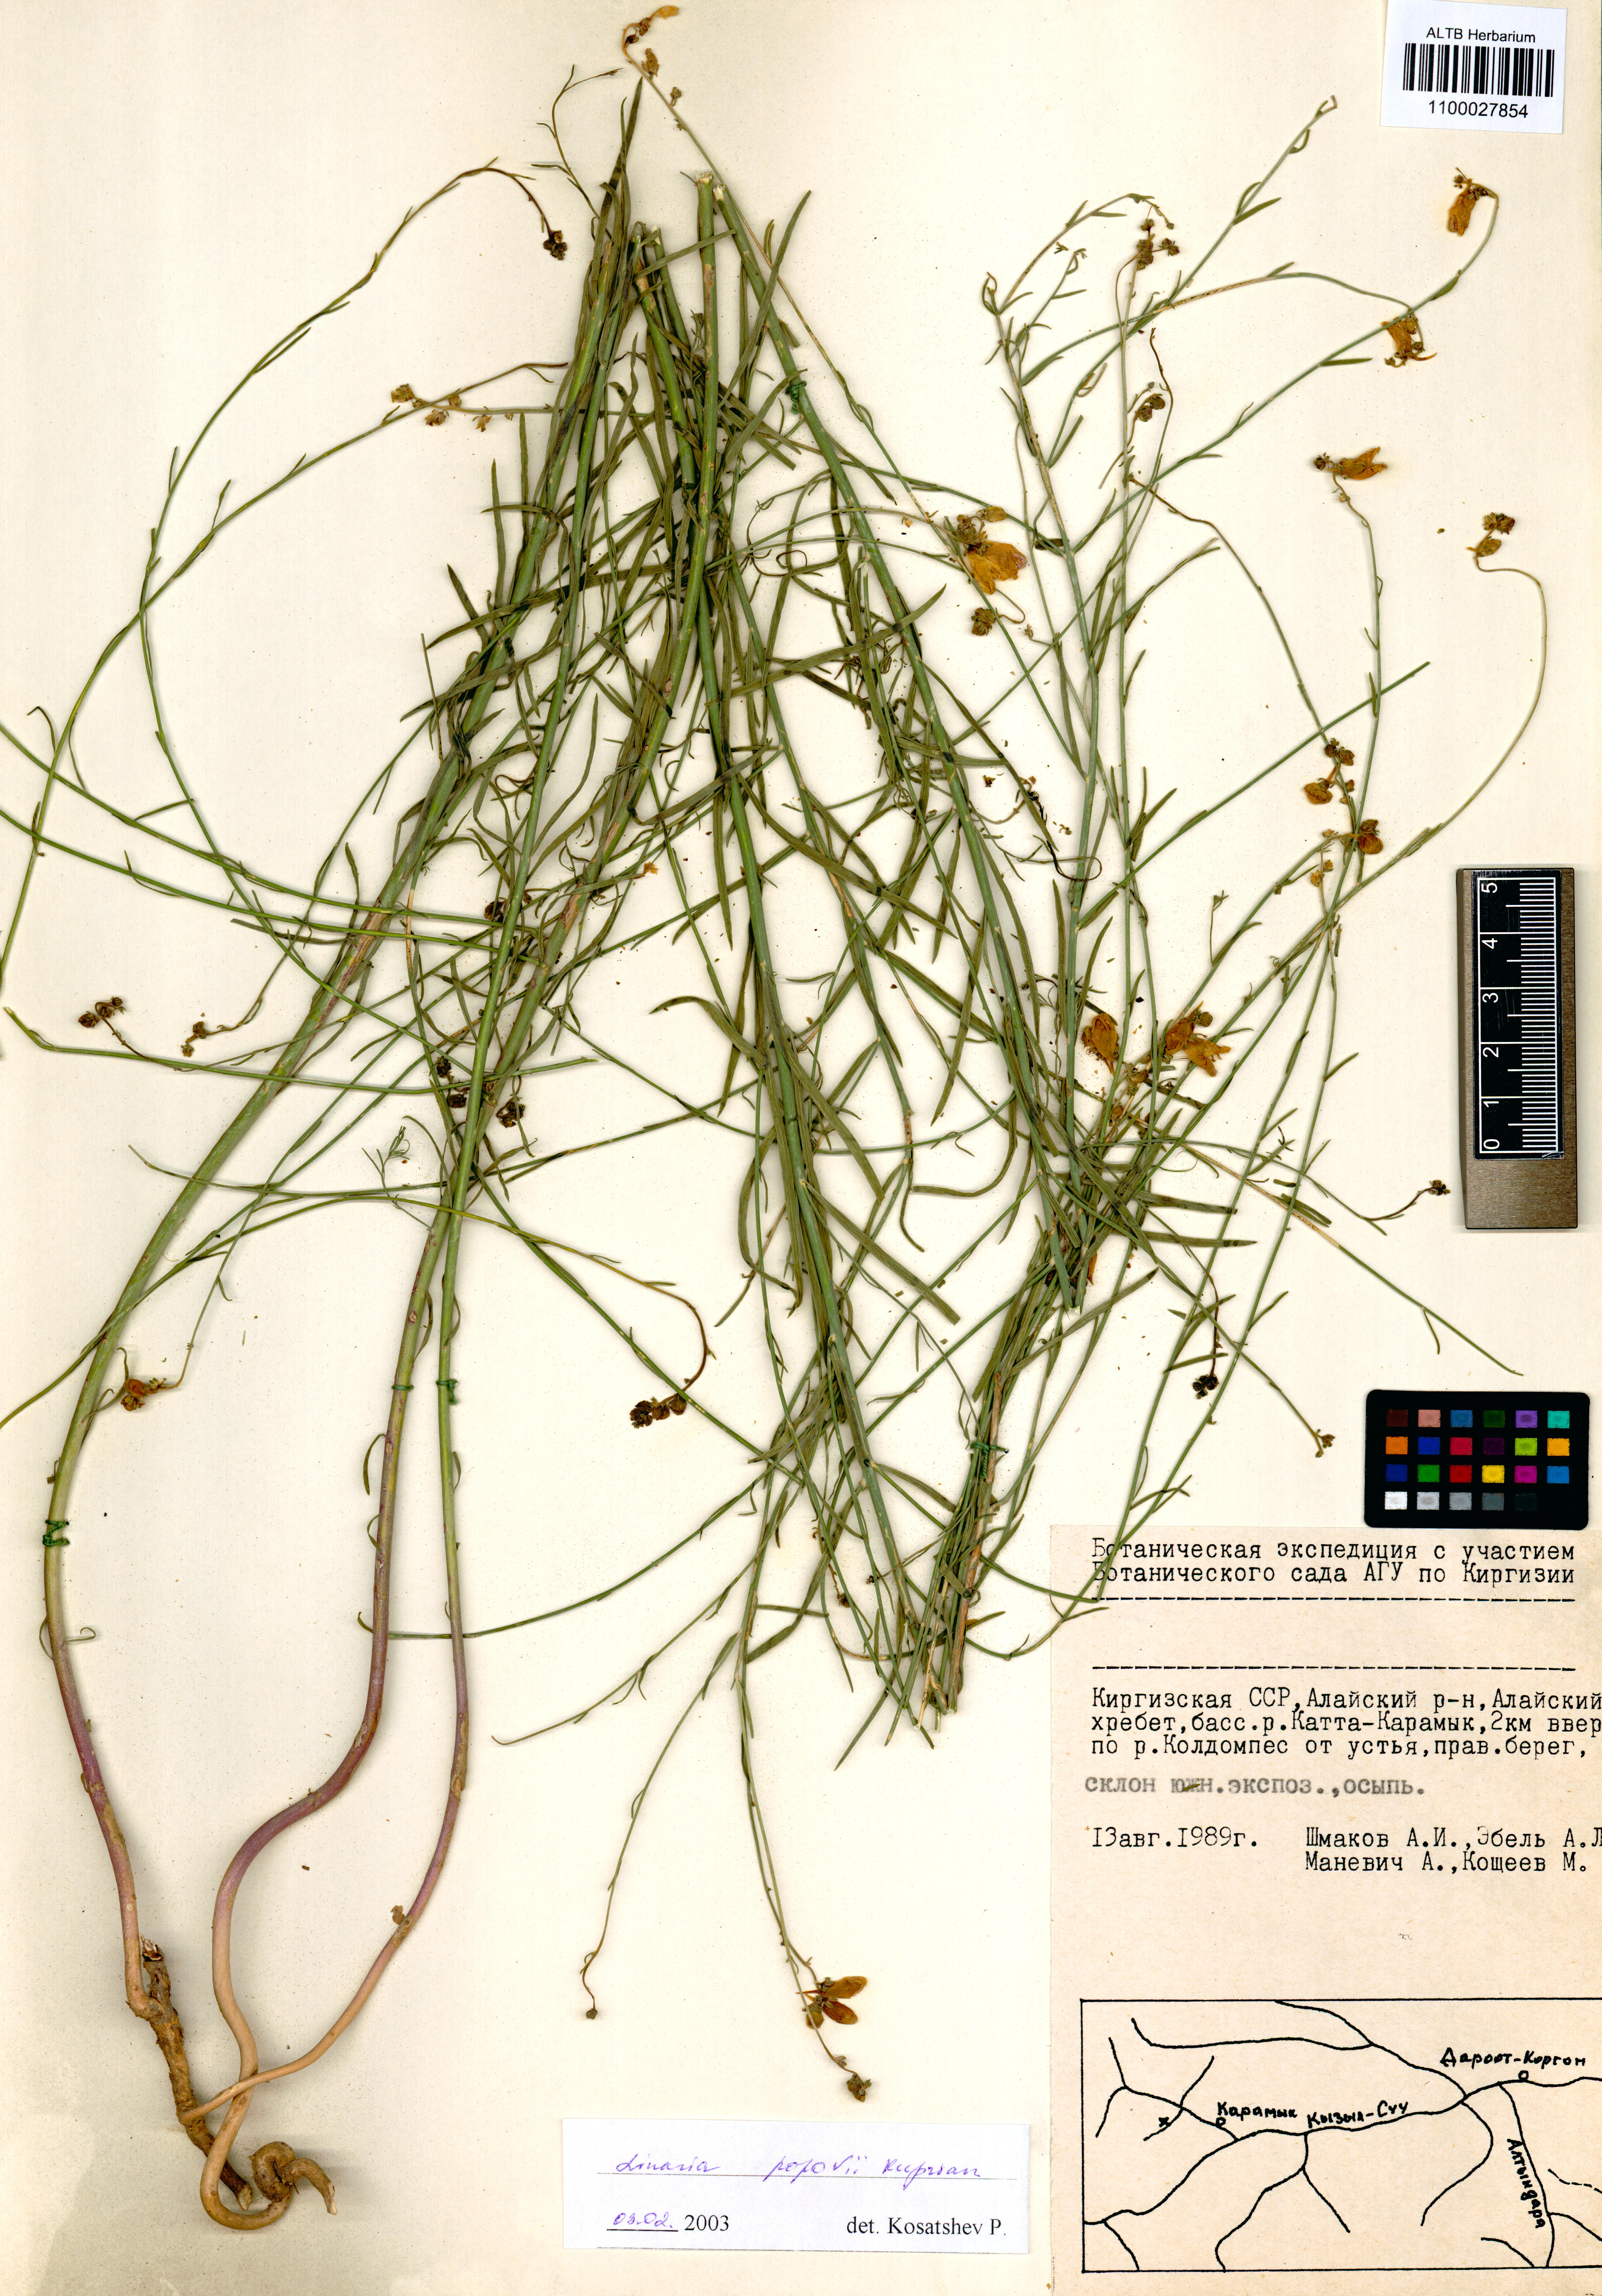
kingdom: Plantae
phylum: Tracheophyta
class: Magnoliopsida
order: Lamiales
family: Plantaginaceae
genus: Linaria
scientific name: Linaria popovii
